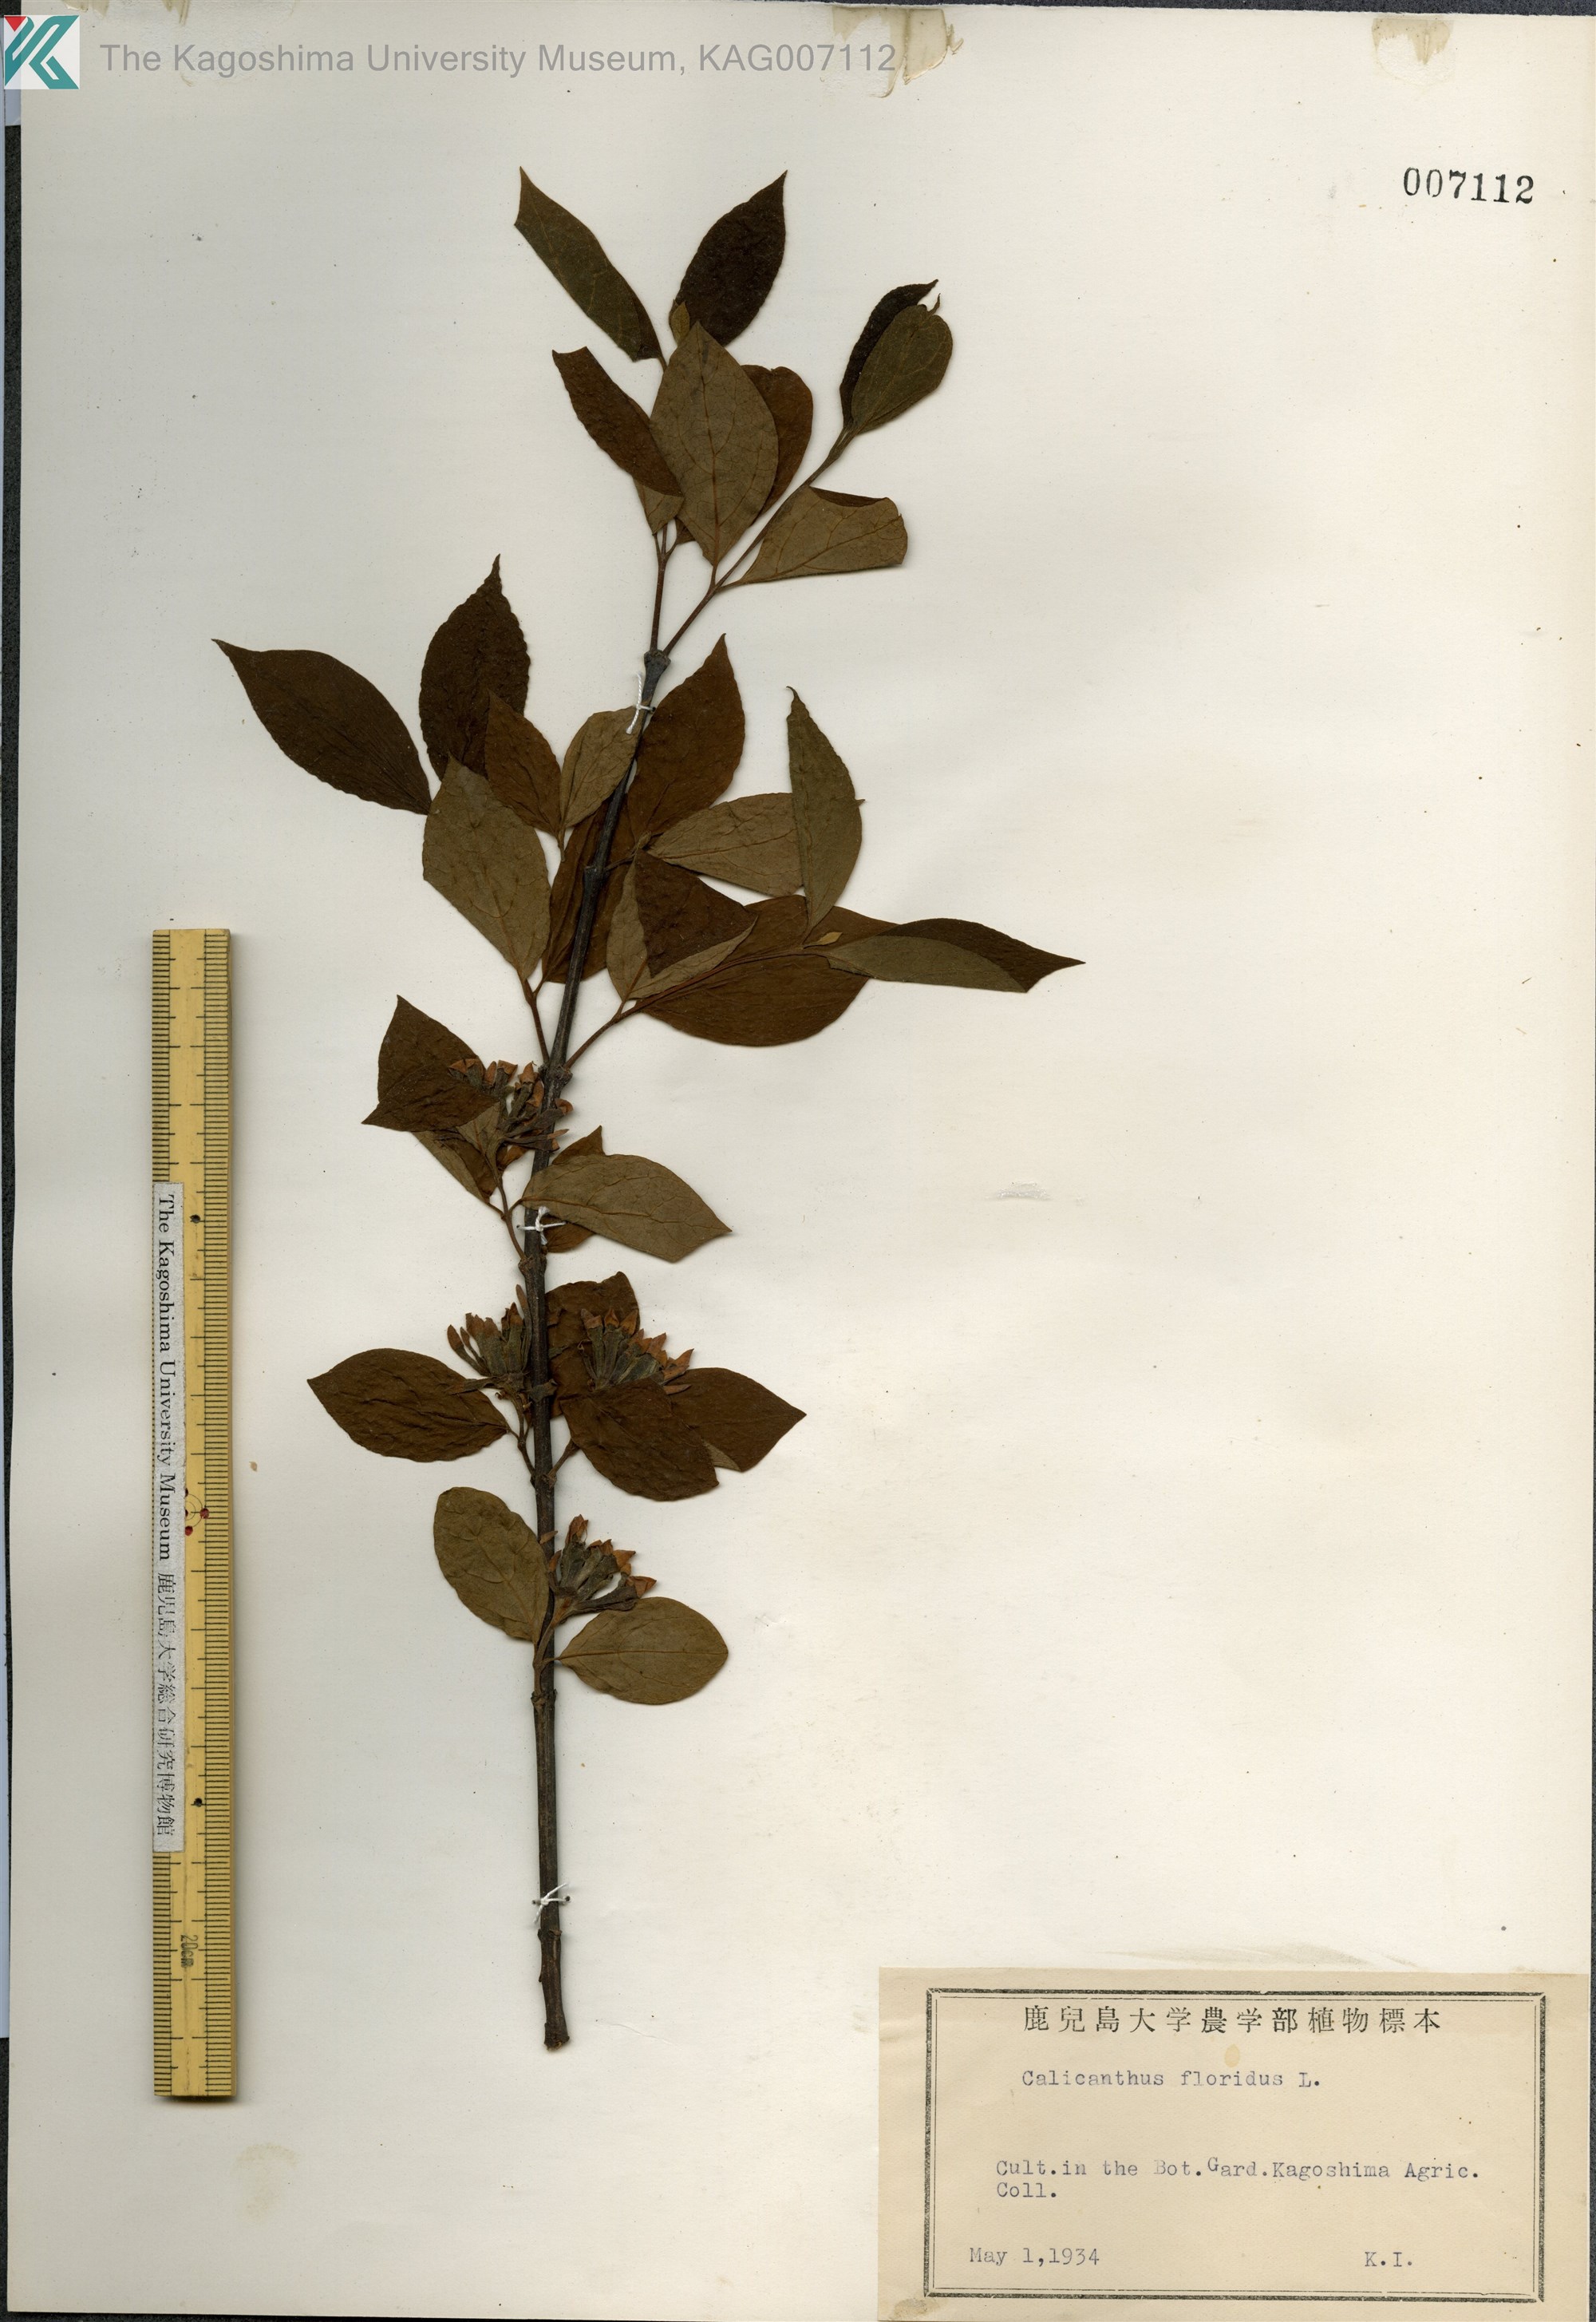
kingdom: Plantae
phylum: Tracheophyta
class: Magnoliopsida
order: Laurales
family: Calycanthaceae
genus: Calycanthus
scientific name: Calycanthus floridus
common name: Carolina-allspice
